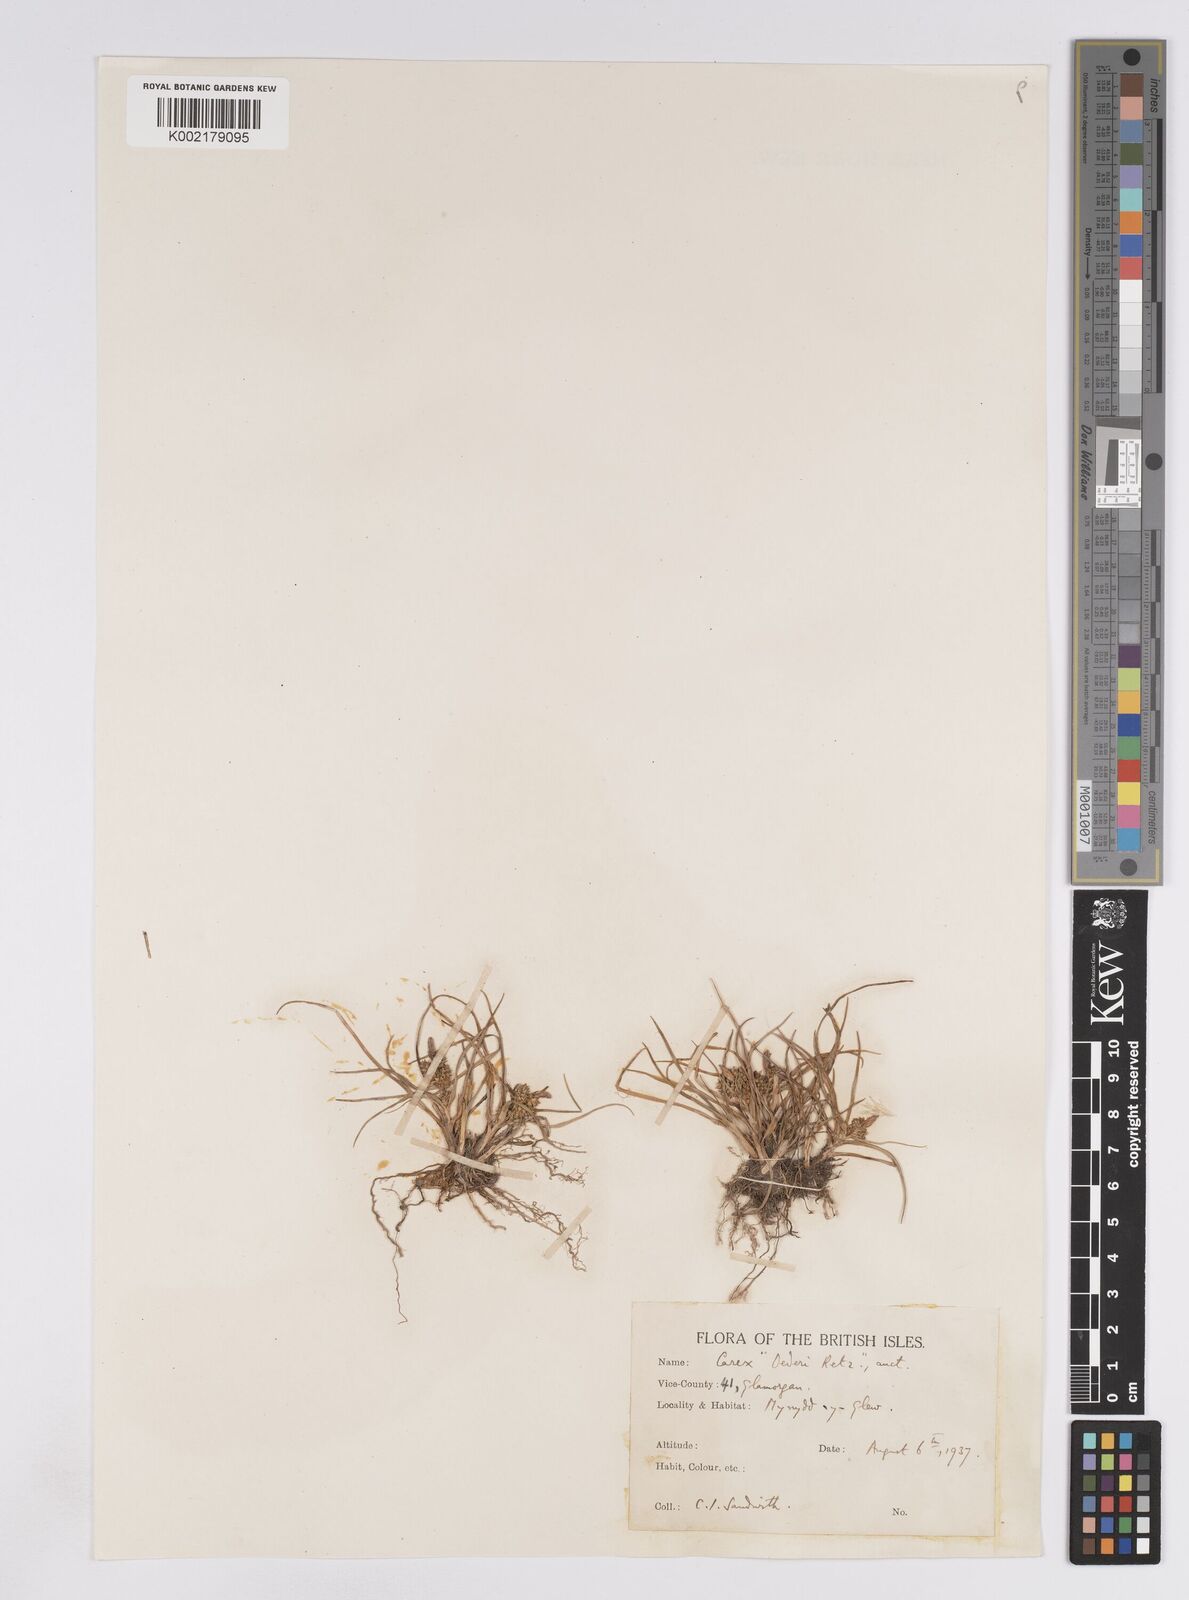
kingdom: Plantae
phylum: Tracheophyta
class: Liliopsida
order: Poales
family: Cyperaceae
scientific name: Cyperaceae
